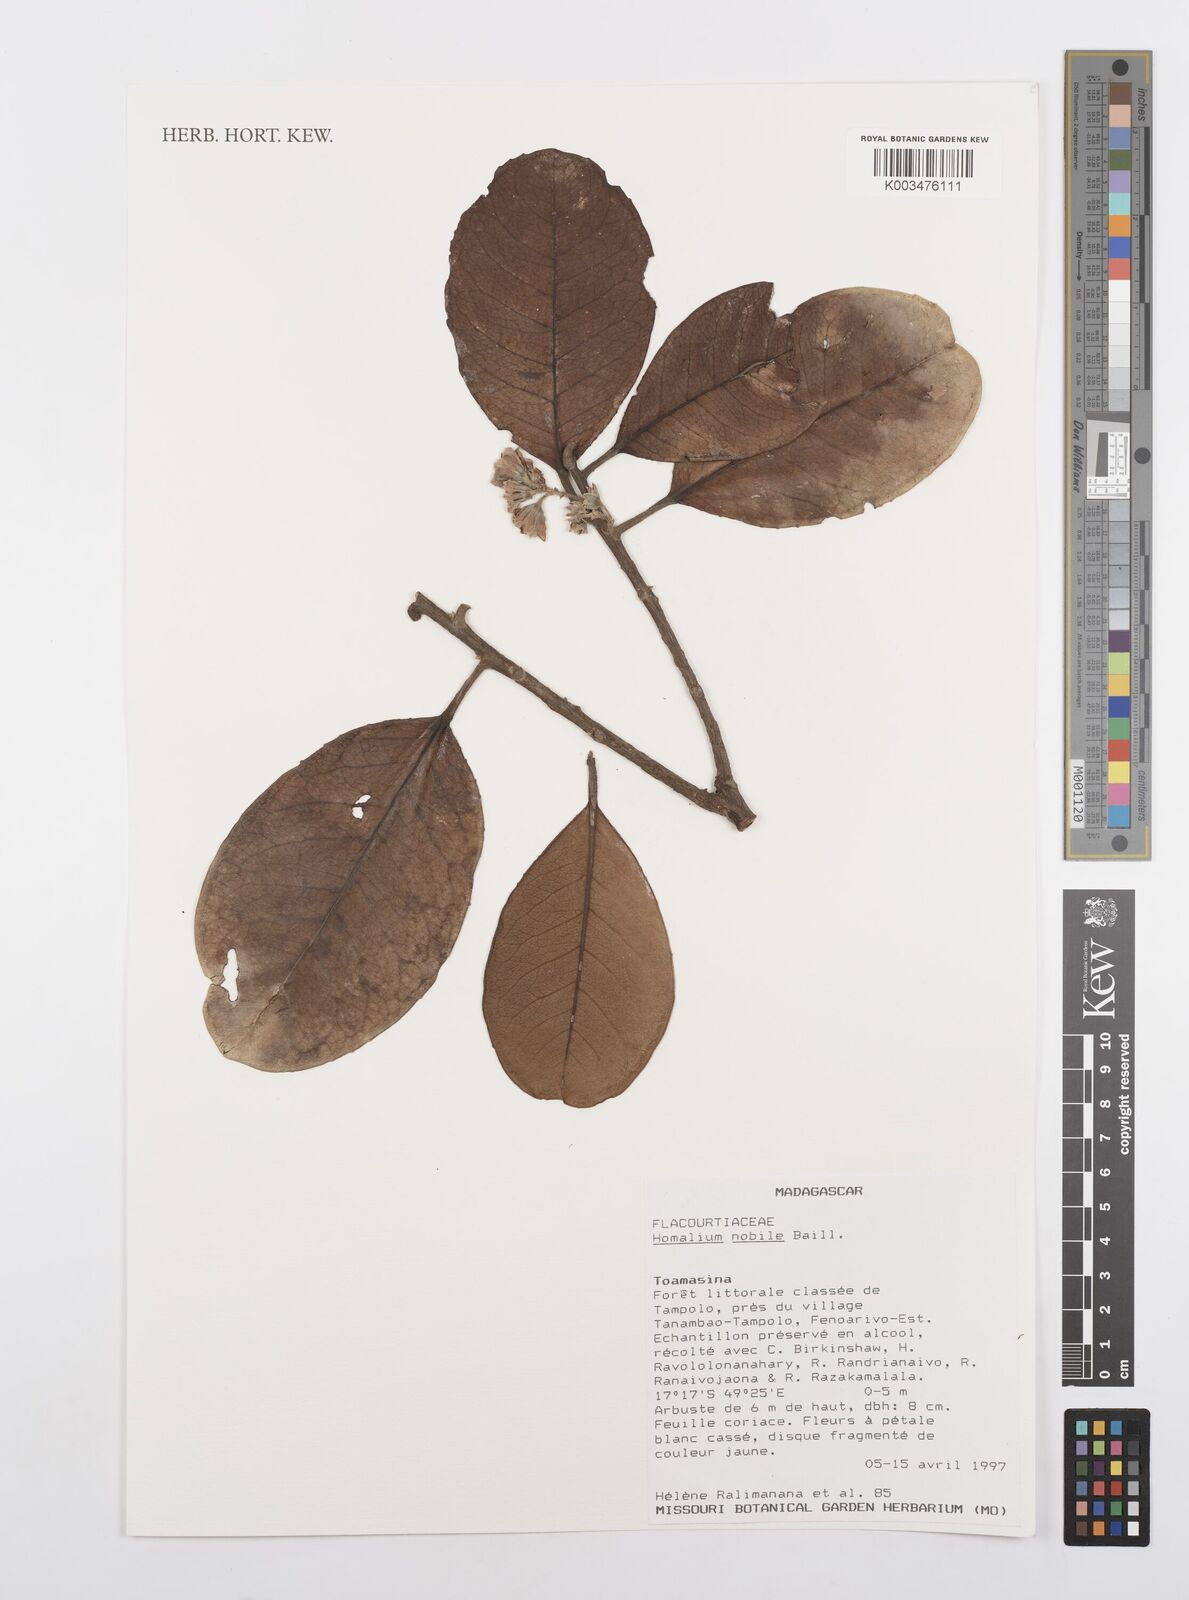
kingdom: Plantae
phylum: Tracheophyta
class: Magnoliopsida
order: Malpighiales
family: Salicaceae
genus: Homalium
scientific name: Homalium nobile
